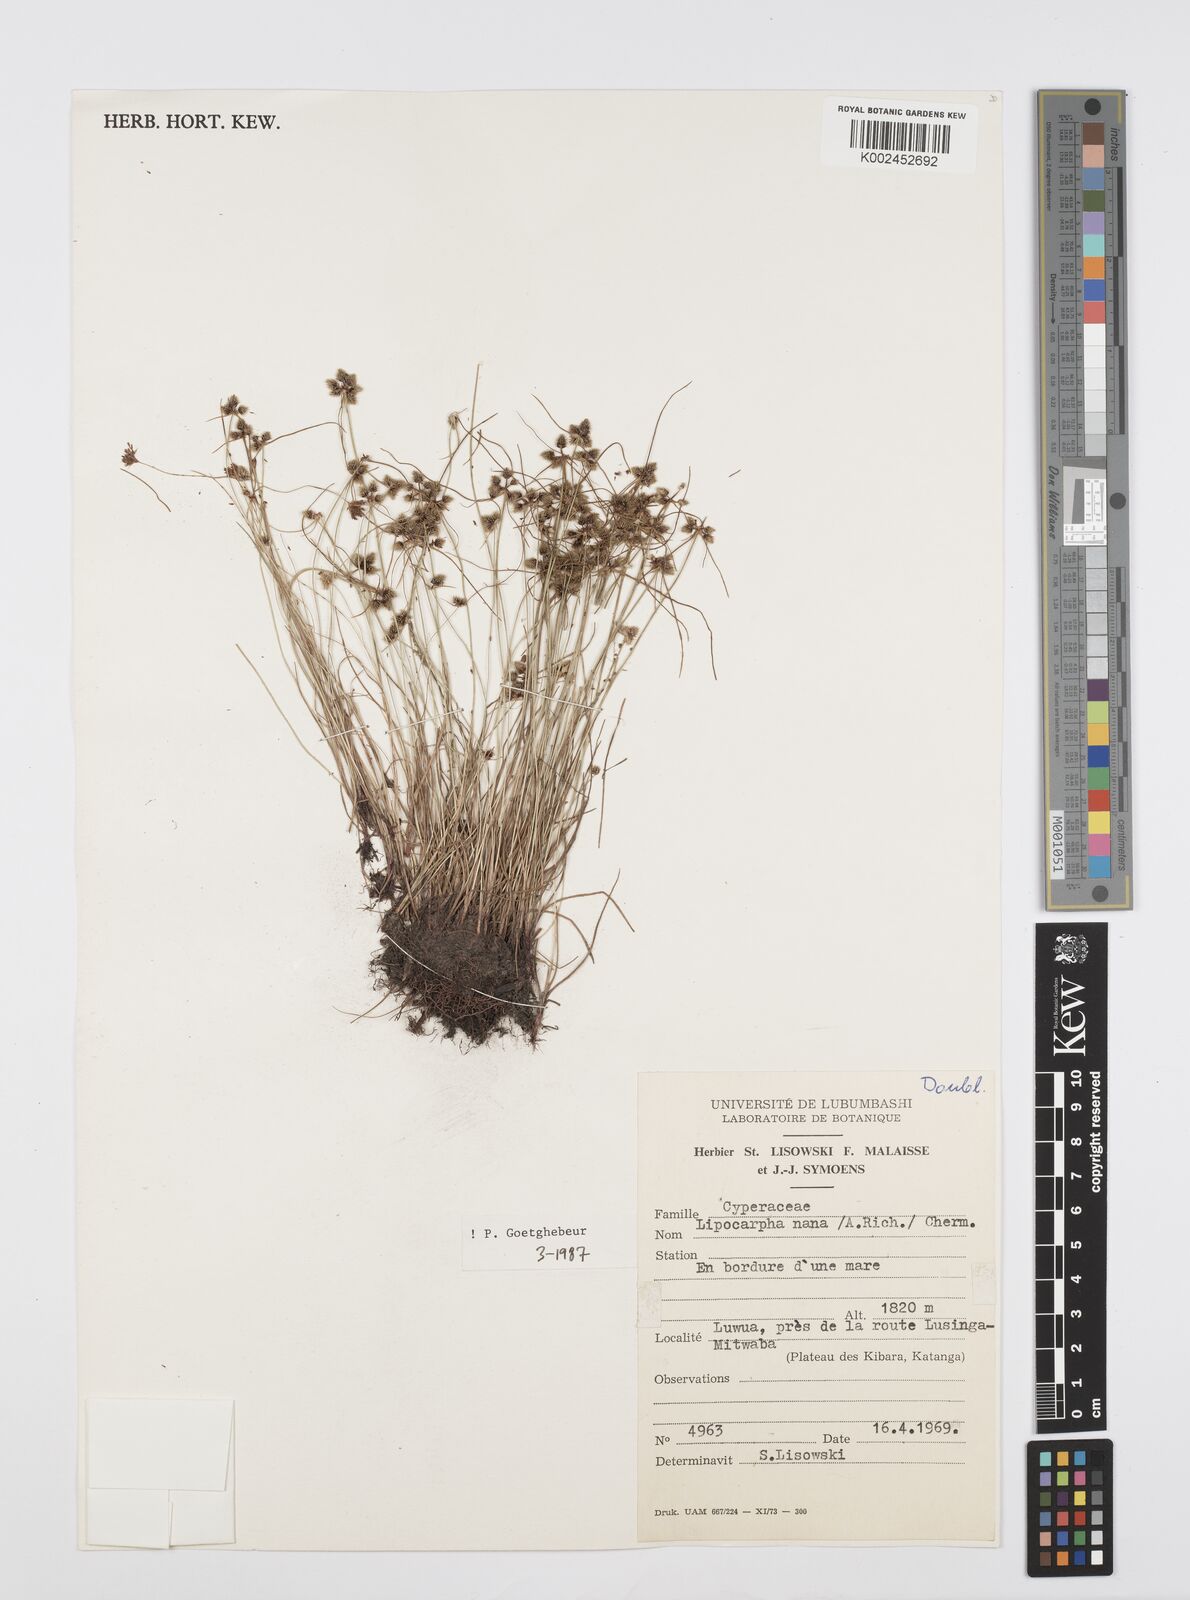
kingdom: Plantae
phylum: Tracheophyta
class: Liliopsida
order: Poales
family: Cyperaceae
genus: Cyperus
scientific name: Cyperus persquarrosus
